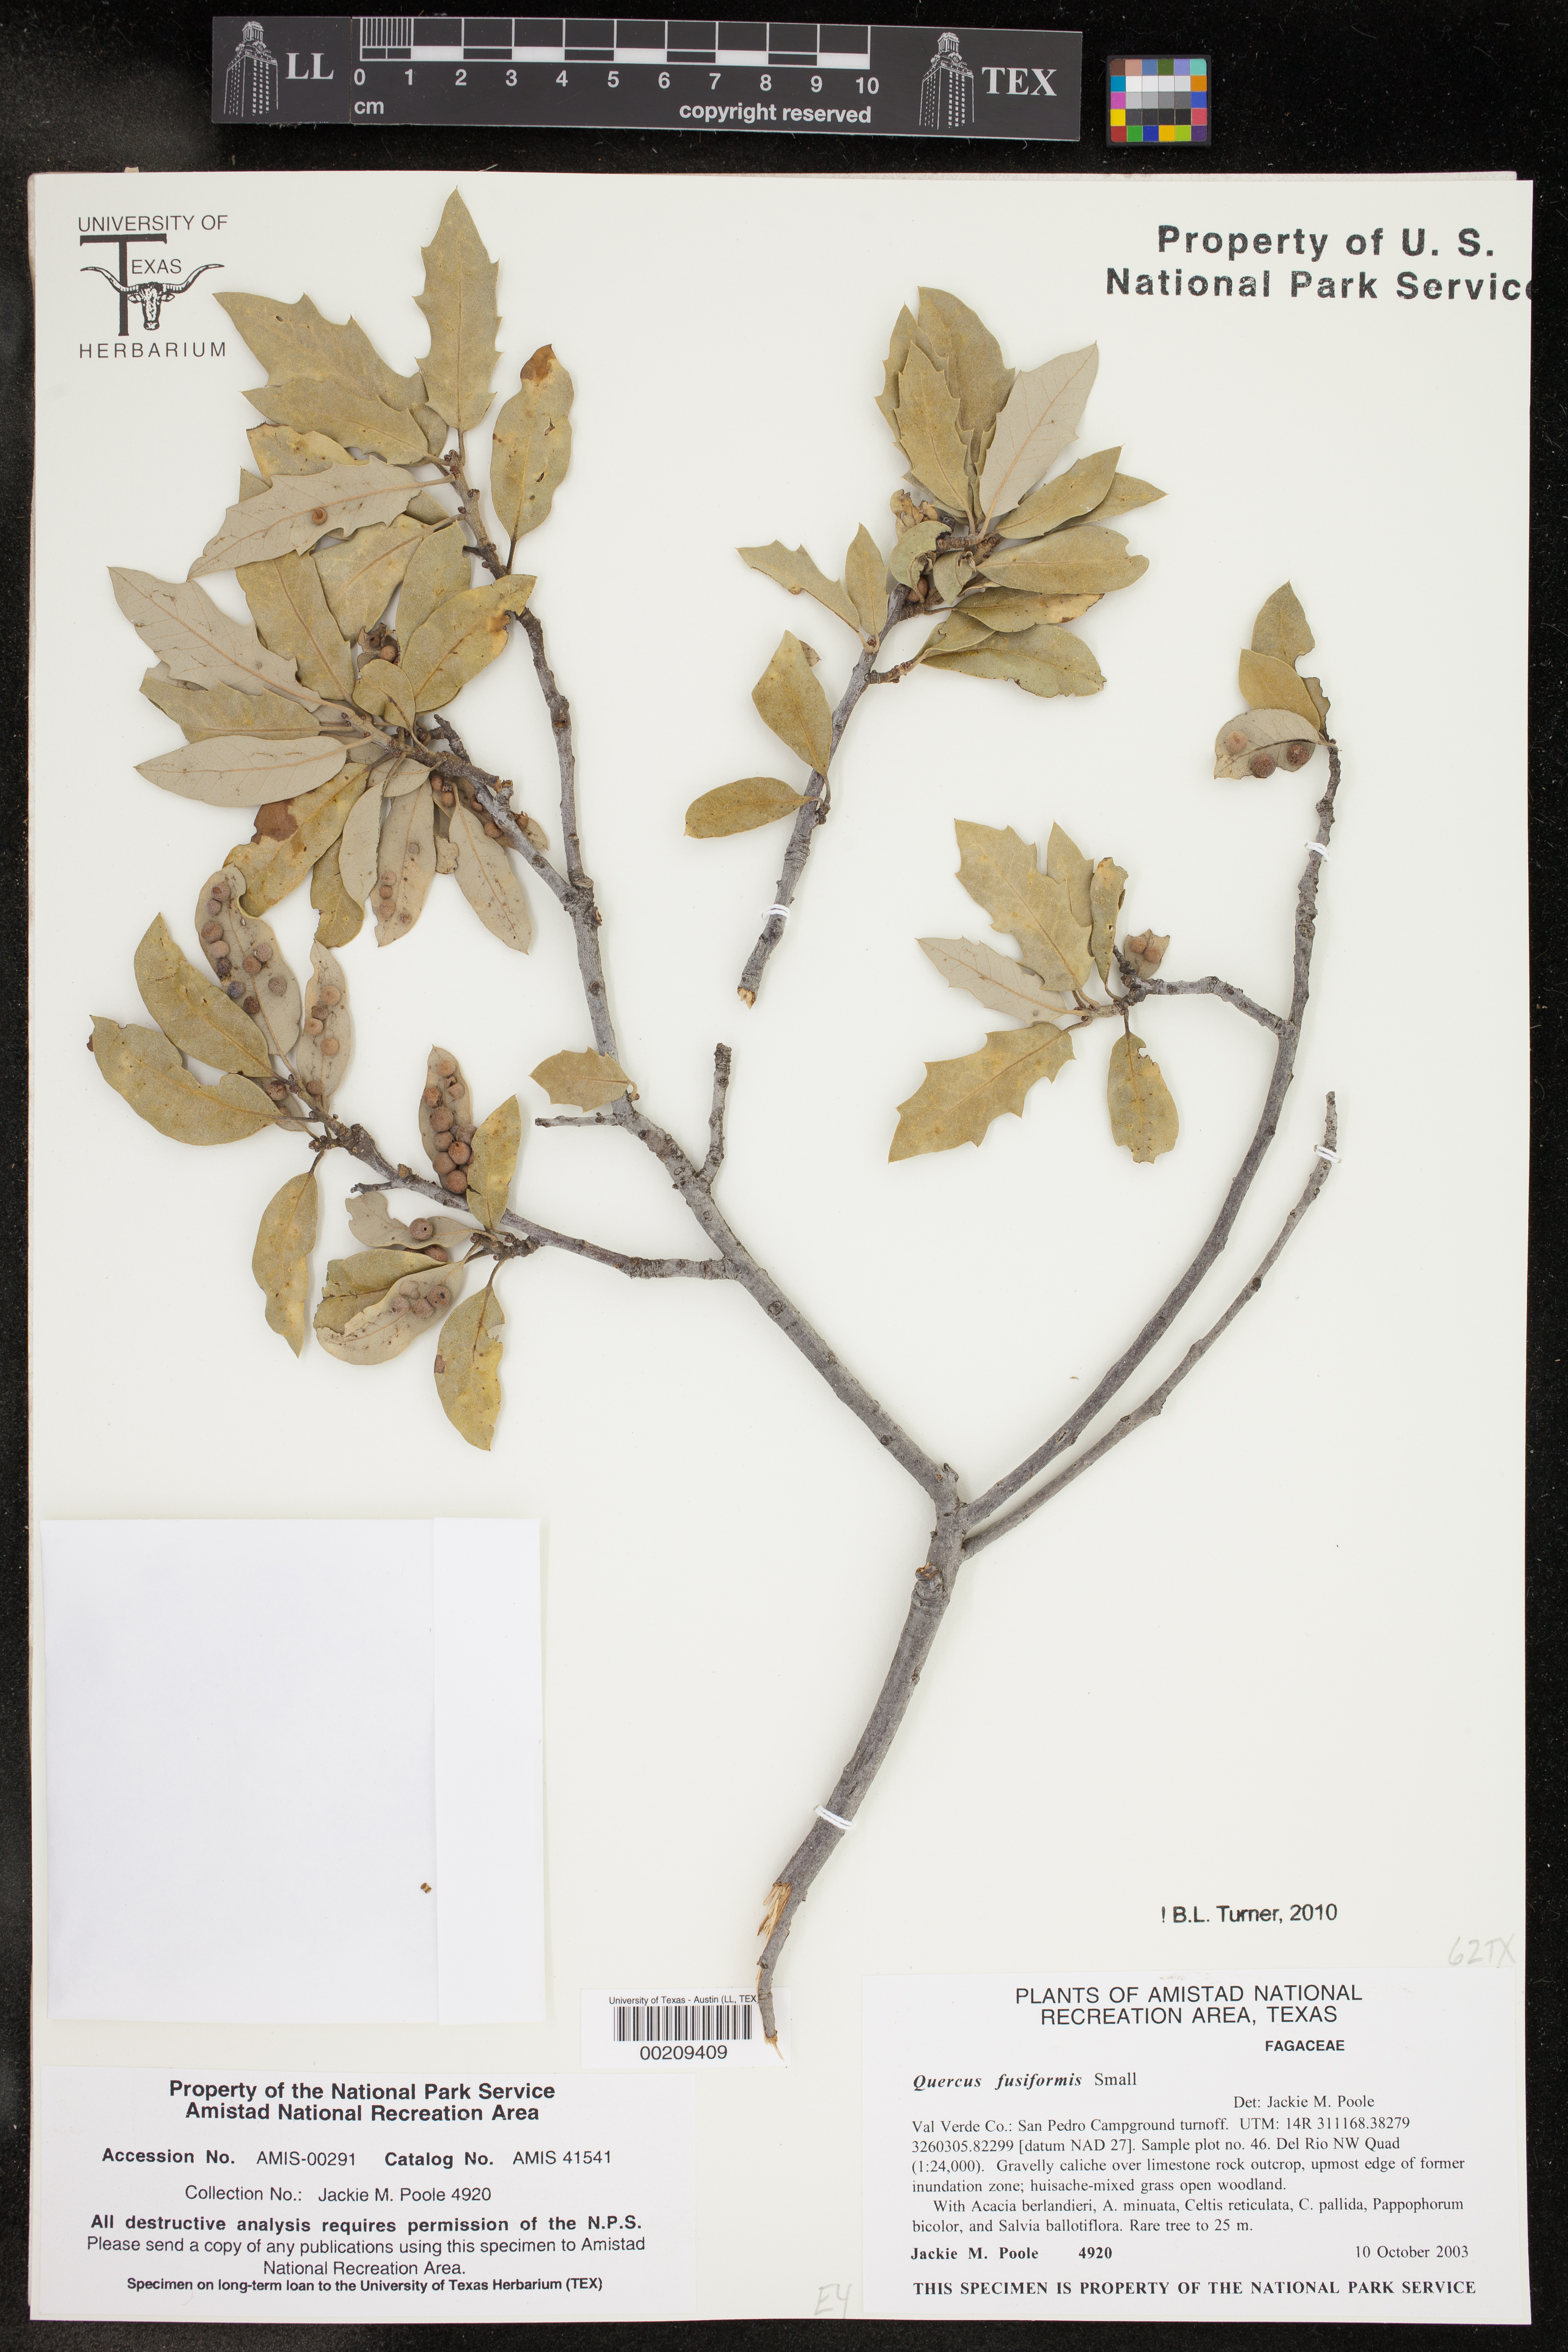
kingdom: Plantae
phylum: Tracheophyta
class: Magnoliopsida
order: Fagales
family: Fagaceae
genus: Quercus
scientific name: Quercus fusiformis
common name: Texas live oak
